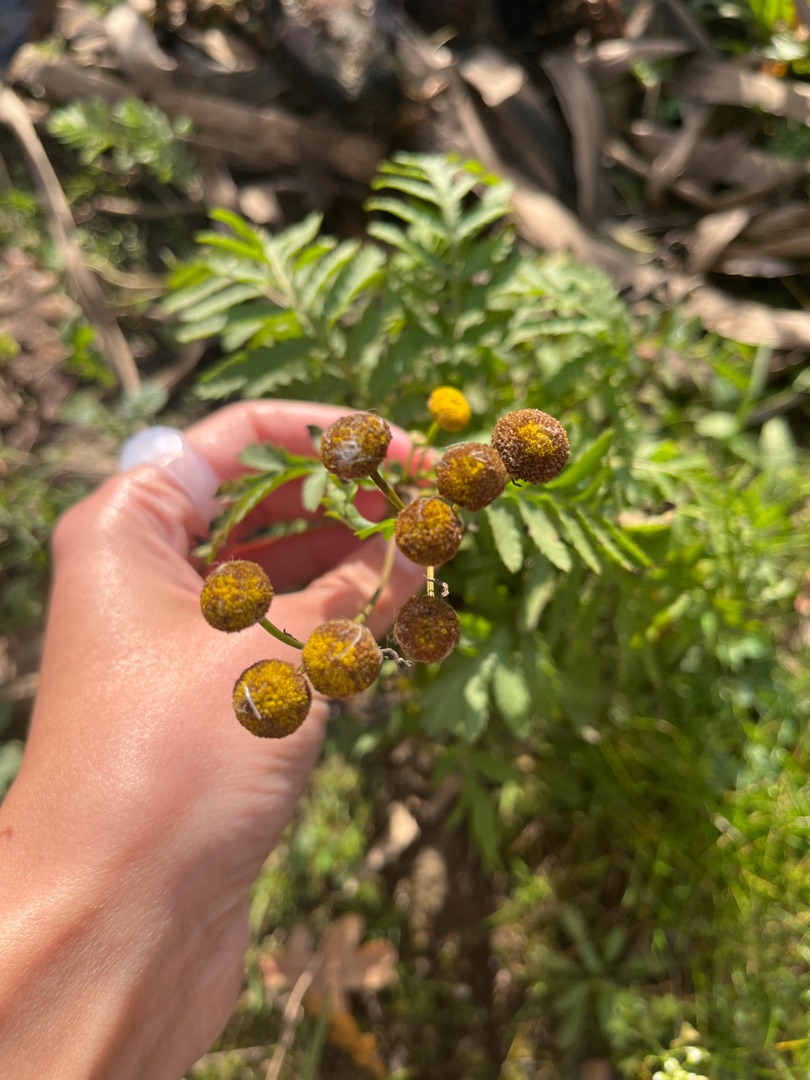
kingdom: Plantae
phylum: Tracheophyta
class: Magnoliopsida
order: Asterales
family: Asteraceae
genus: Tanacetum
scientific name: Tanacetum vulgare
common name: Rejnfan
